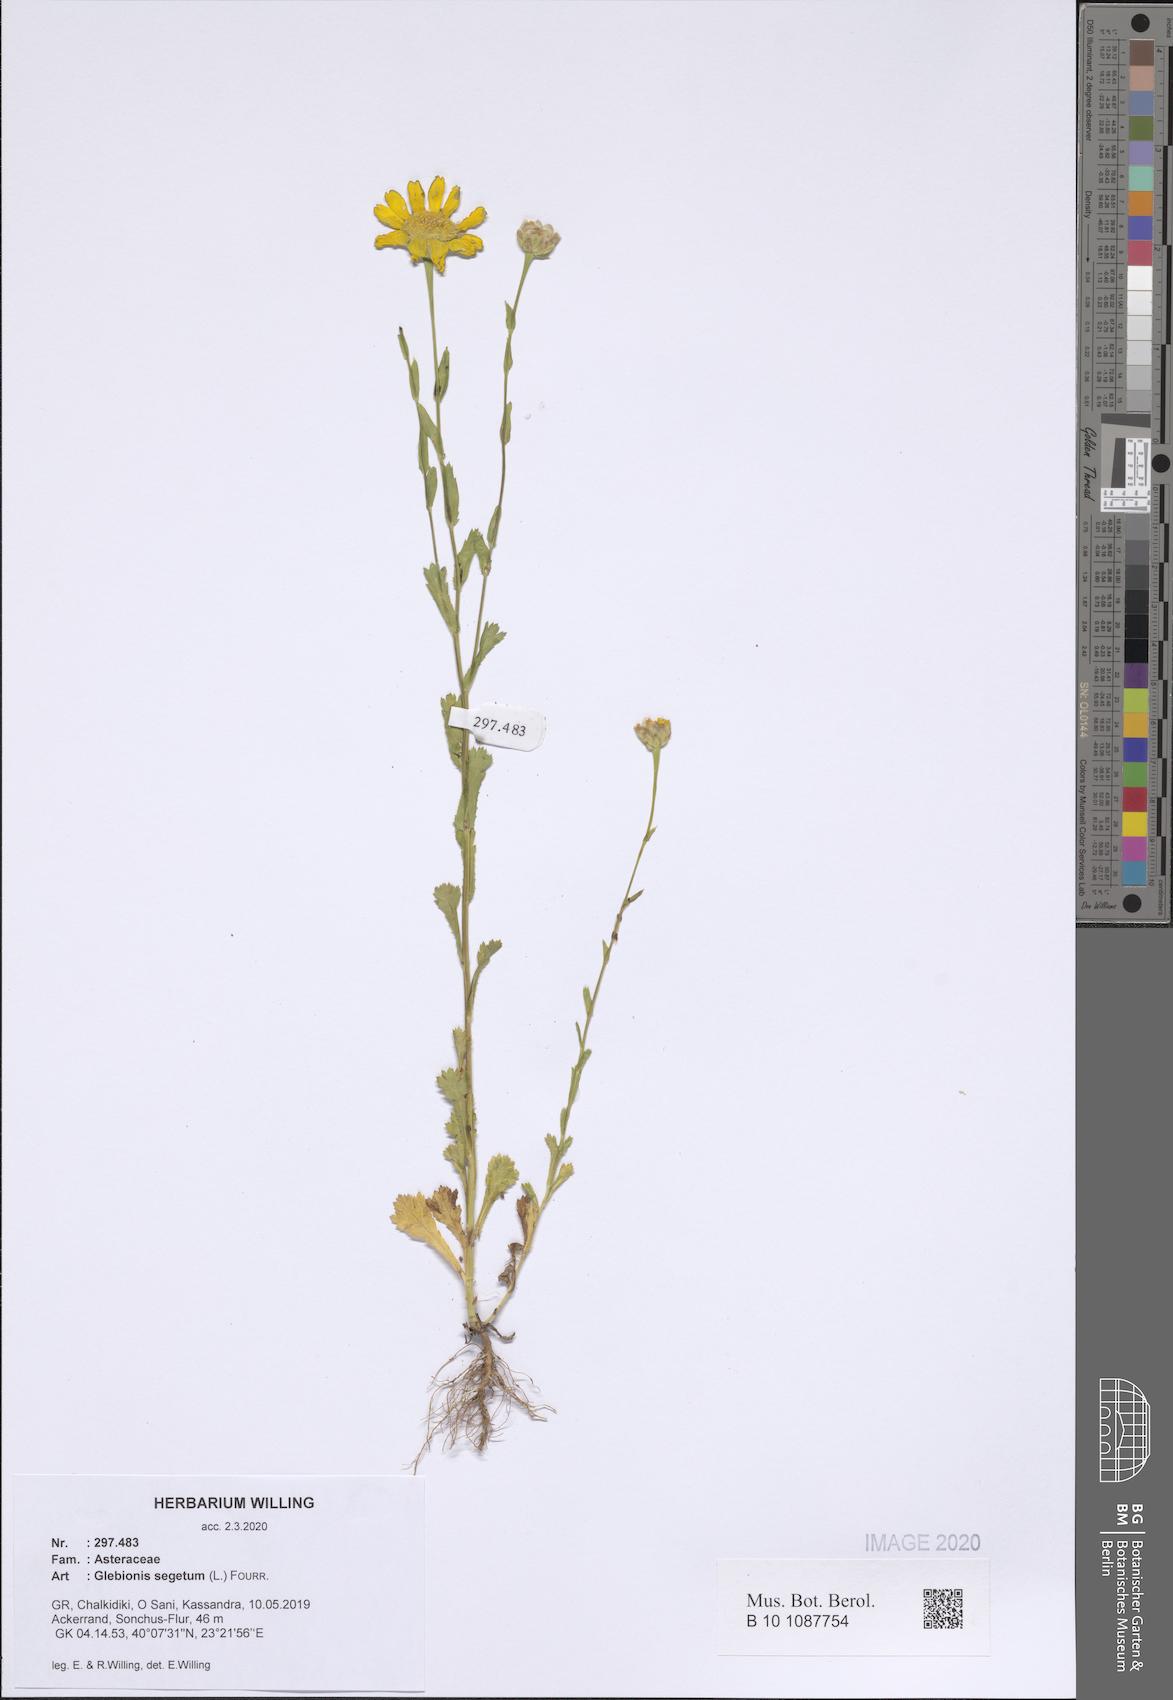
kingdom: Plantae
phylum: Tracheophyta
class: Magnoliopsida
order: Asterales
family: Asteraceae
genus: Glebionis
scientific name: Glebionis segetum
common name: Corndaisy
